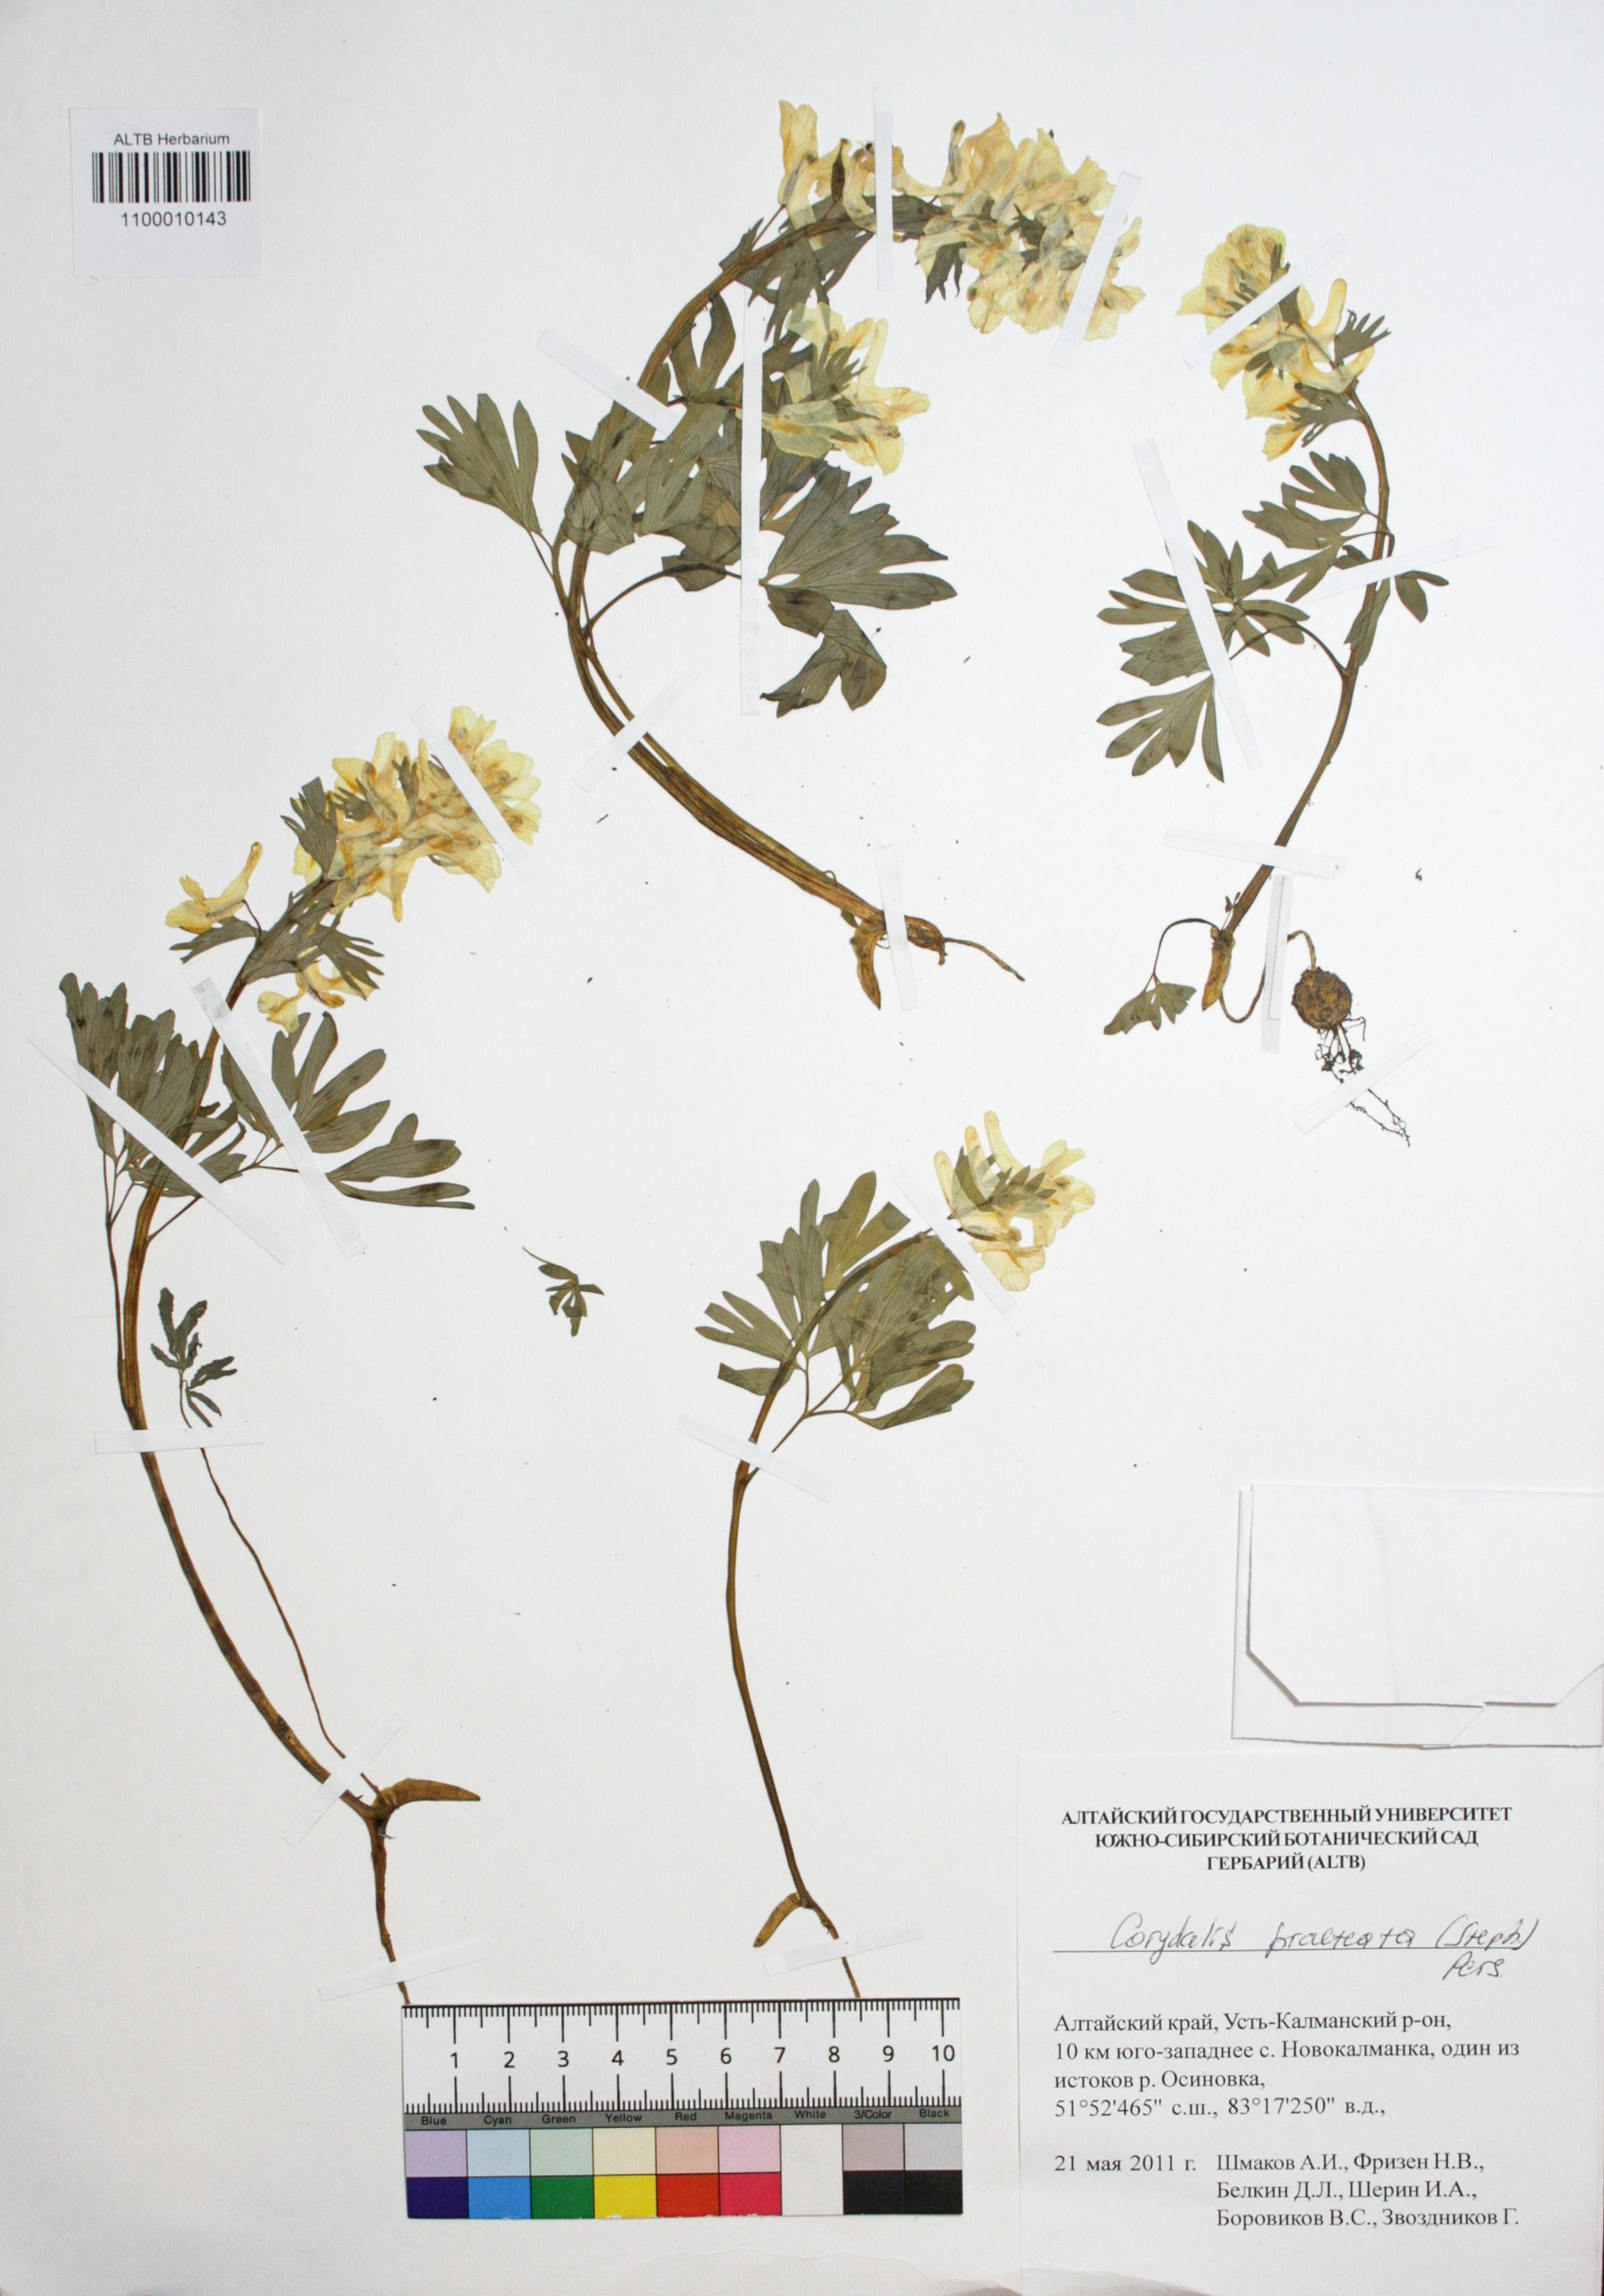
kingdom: Plantae
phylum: Tracheophyta
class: Magnoliopsida
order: Ranunculales
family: Papaveraceae
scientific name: Papaveraceae
